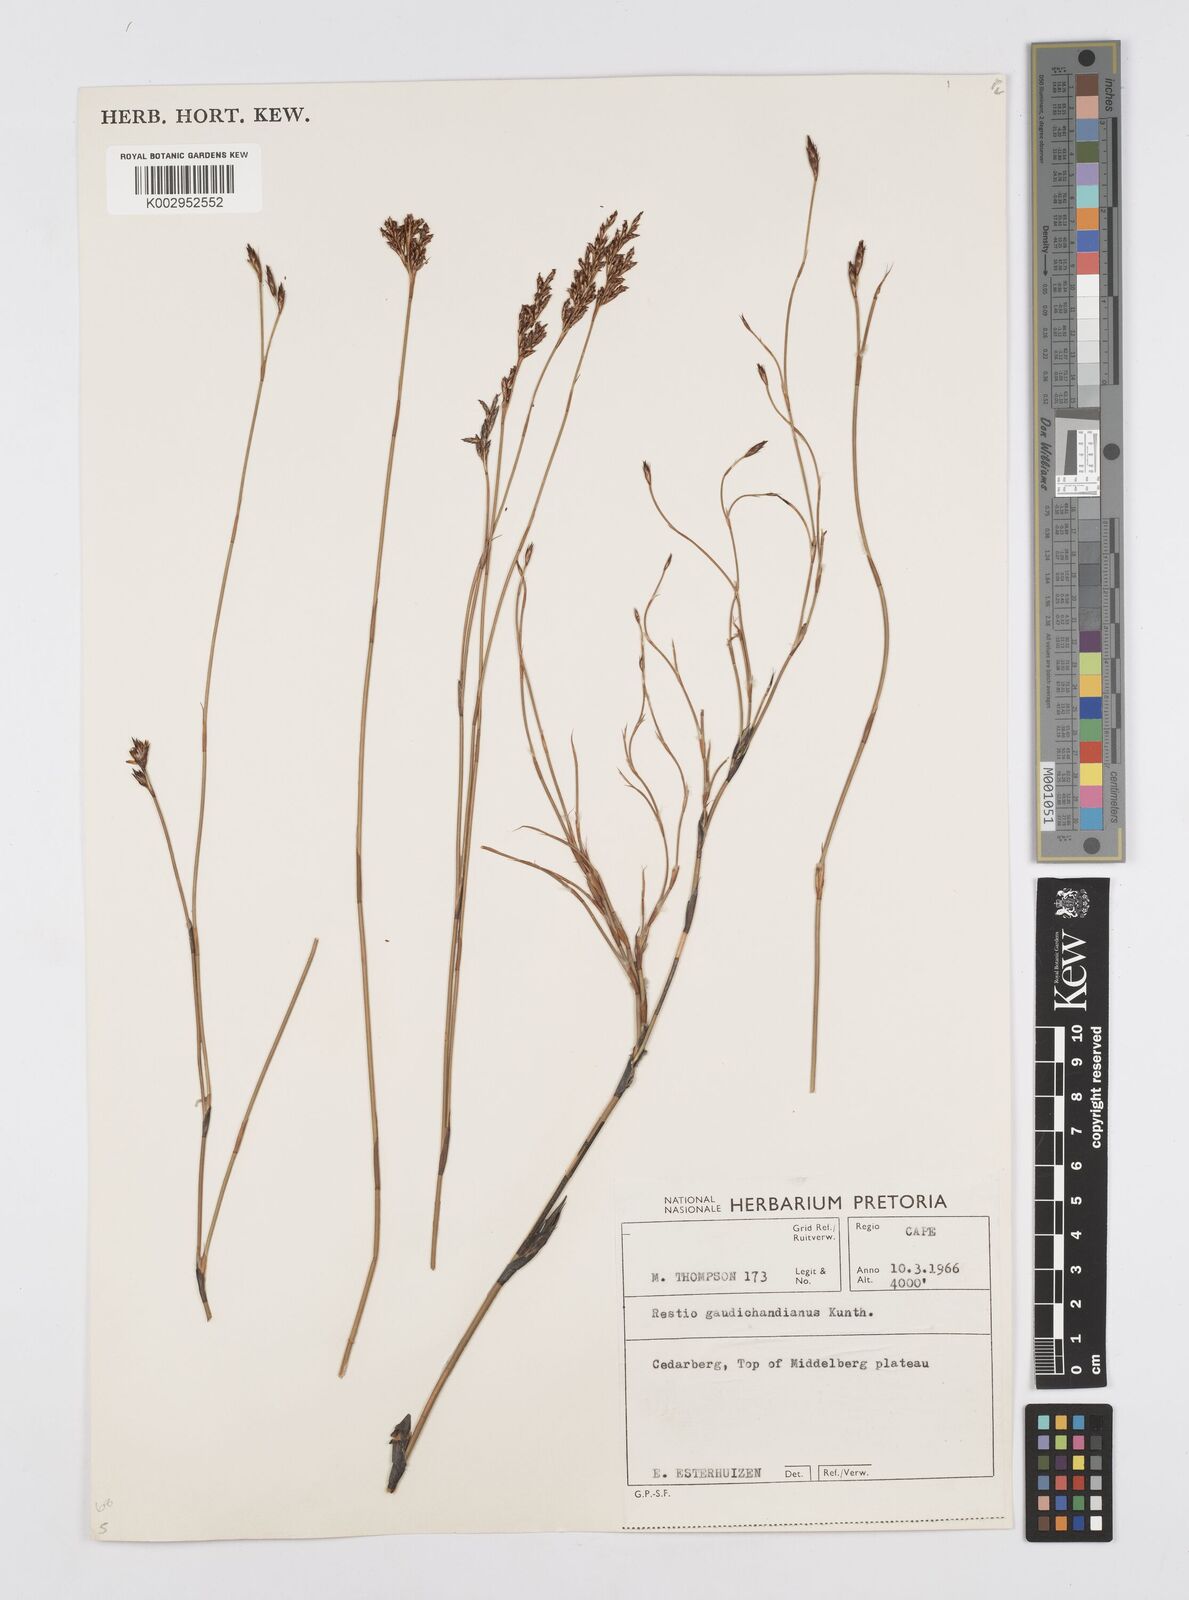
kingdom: Plantae
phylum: Tracheophyta
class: Liliopsida
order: Poales
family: Restionaceae
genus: Restio
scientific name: Restio gaudichaudianus
